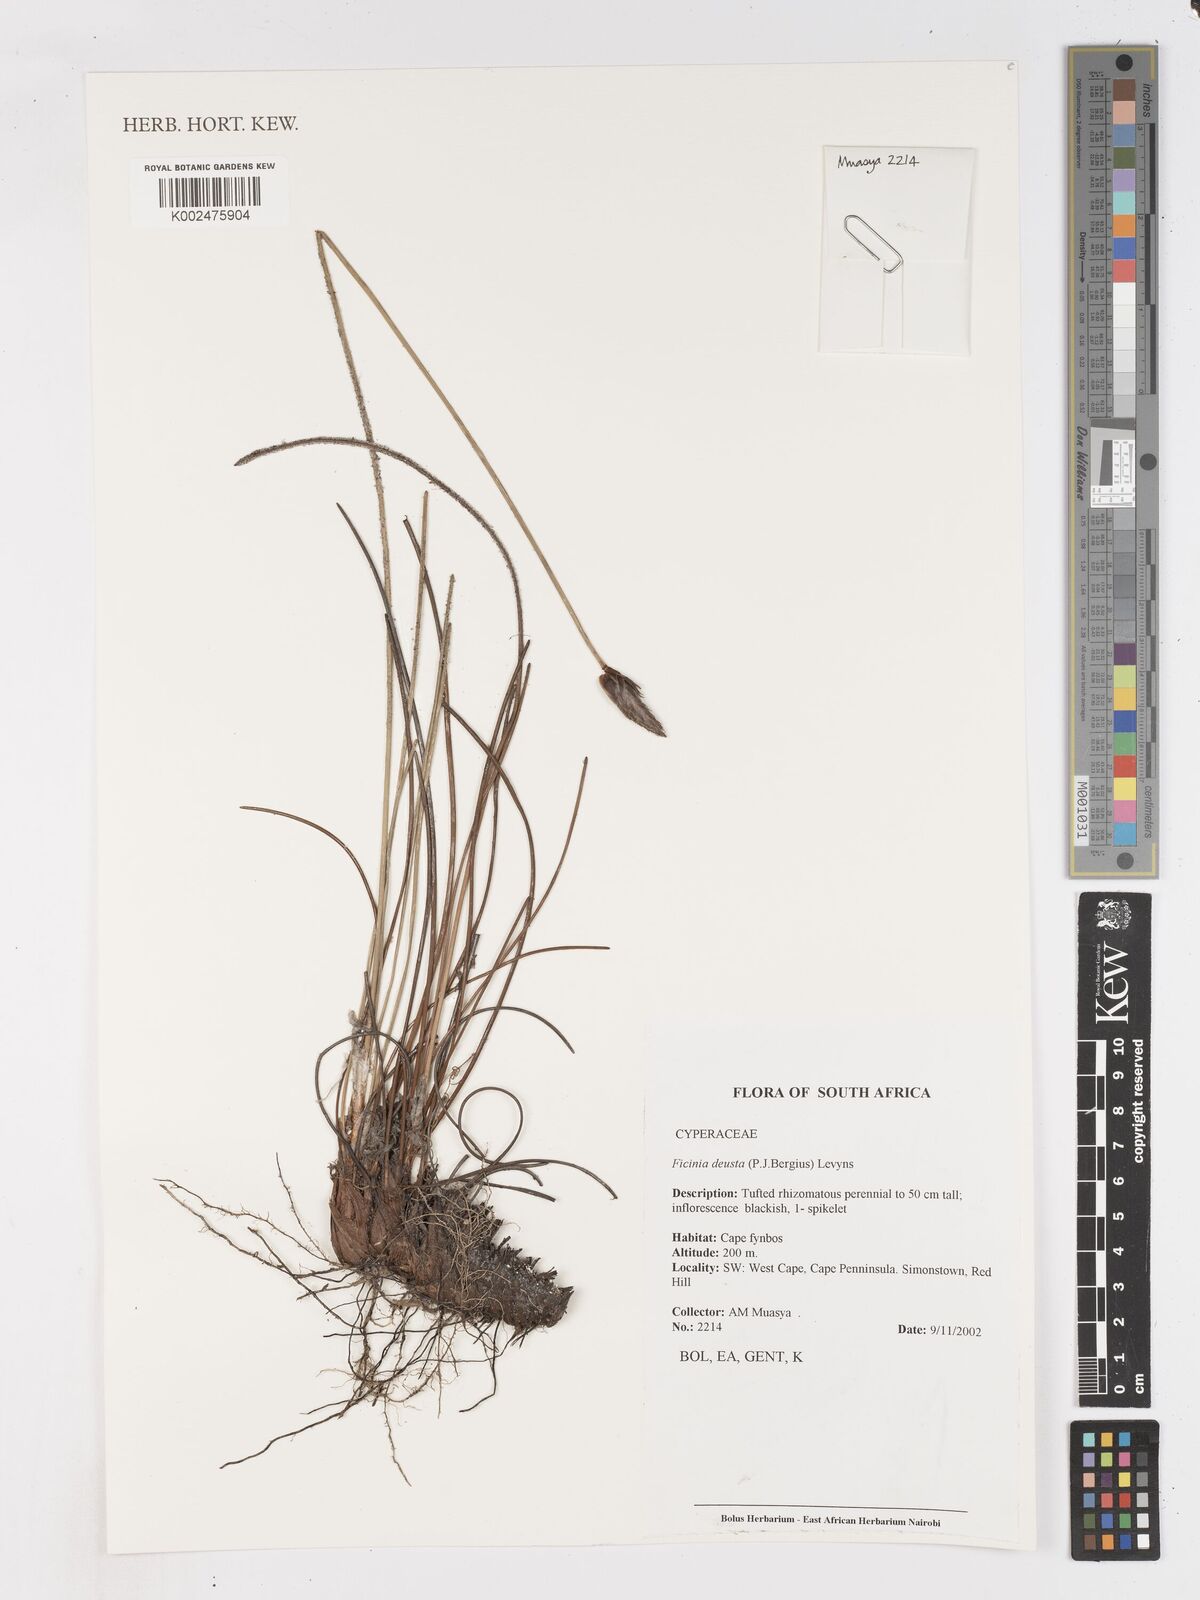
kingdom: Plantae
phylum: Tracheophyta
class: Liliopsida
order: Poales
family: Cyperaceae
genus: Ficinia
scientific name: Ficinia deusta
